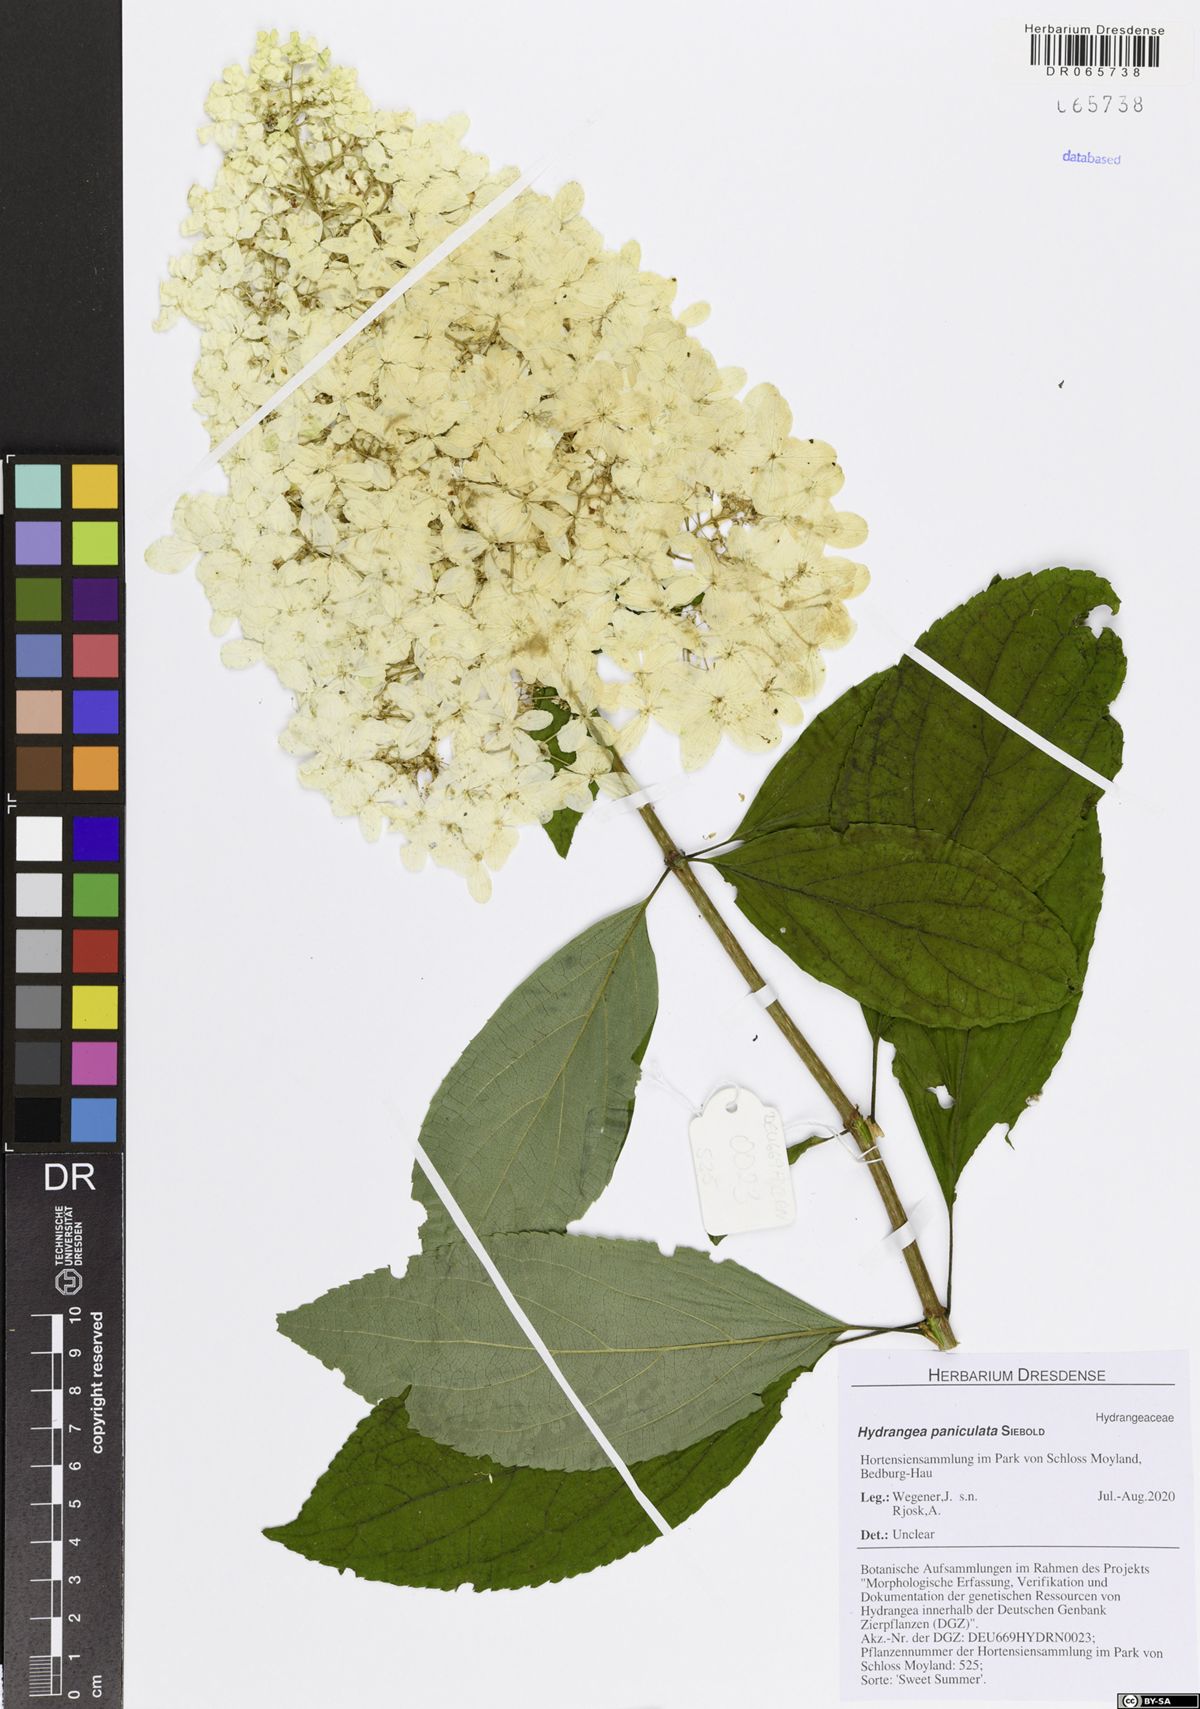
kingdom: Plantae
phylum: Tracheophyta
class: Magnoliopsida
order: Cornales
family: Hydrangeaceae
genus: Hydrangea
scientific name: Hydrangea paniculata
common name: Panicled hydrangea
